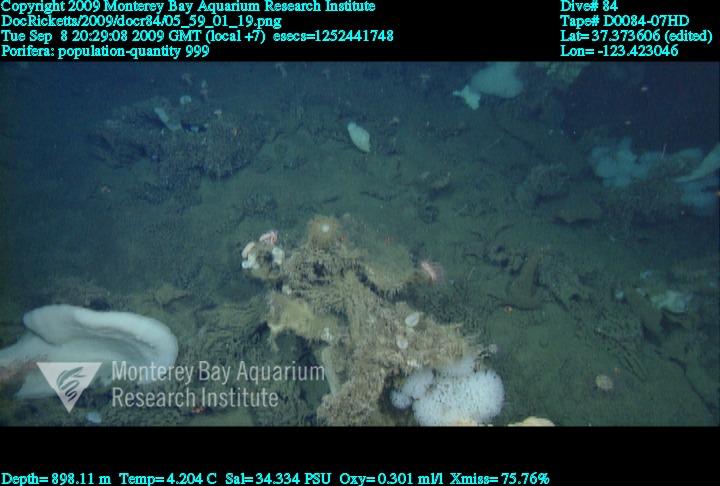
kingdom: Animalia
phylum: Porifera
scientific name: Porifera
